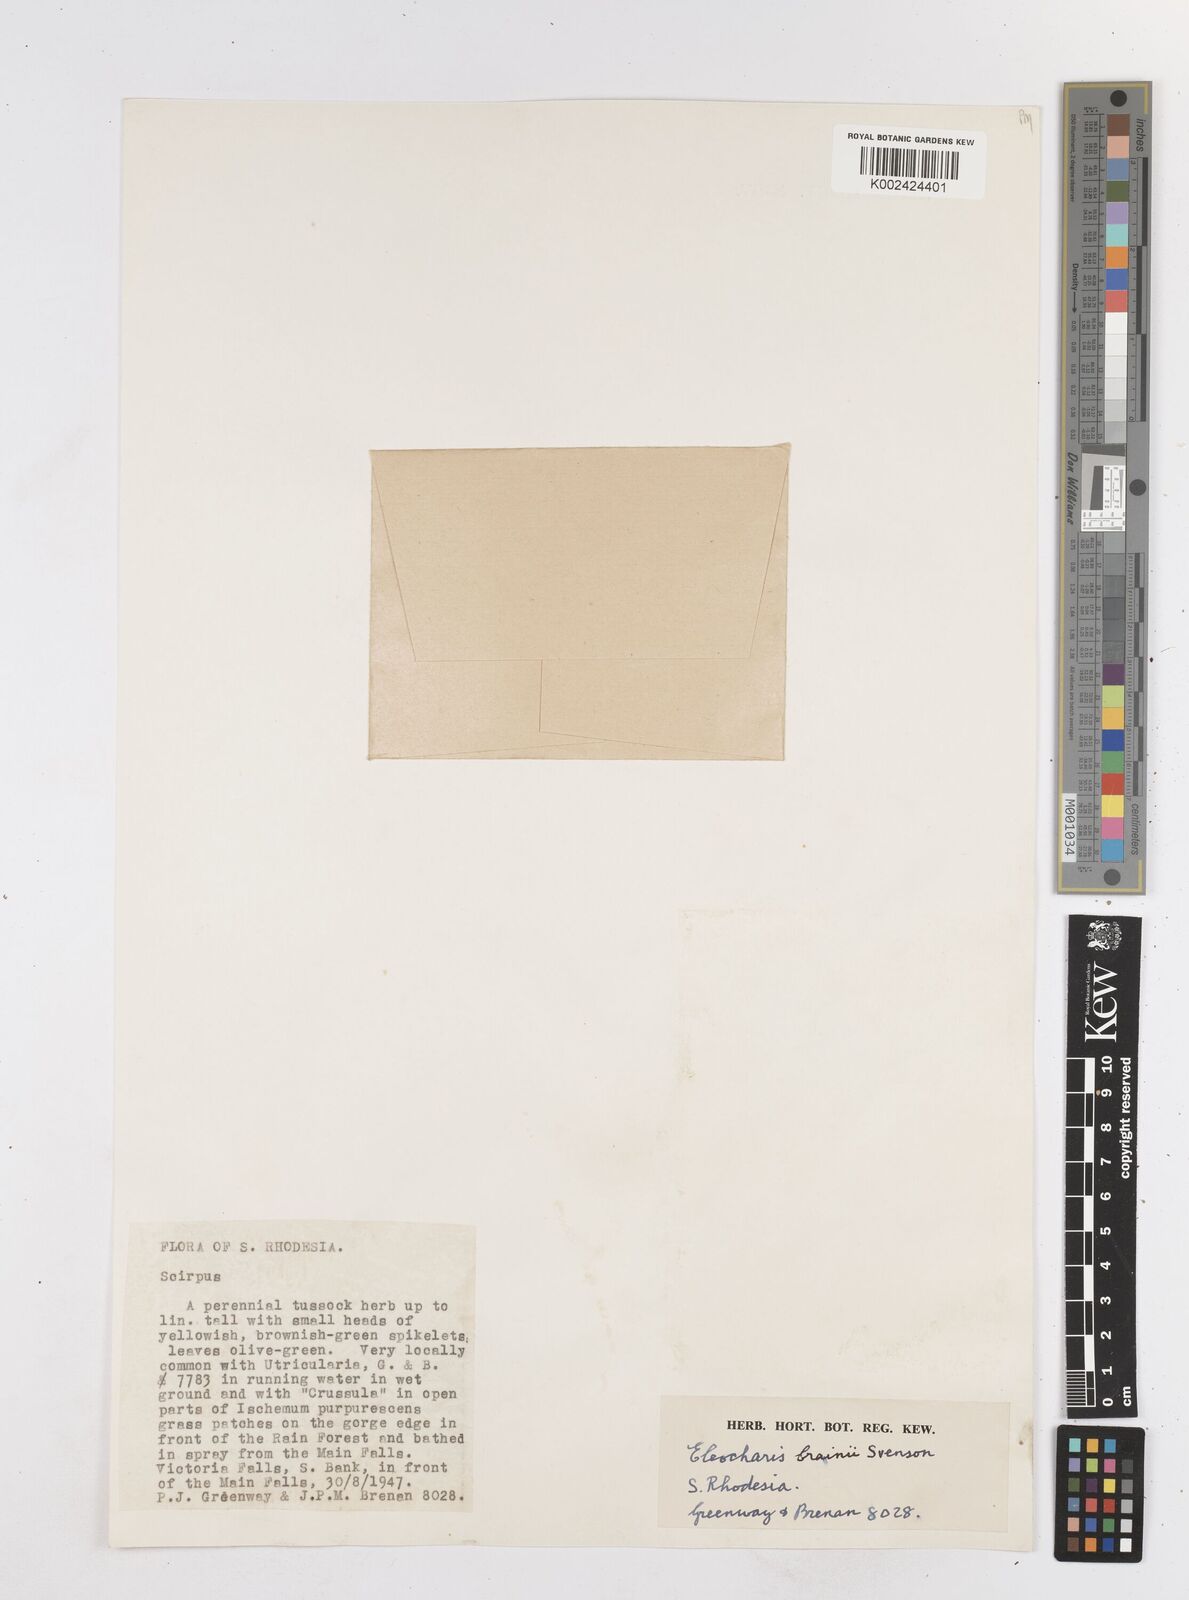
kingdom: Plantae
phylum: Tracheophyta
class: Liliopsida
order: Poales
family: Cyperaceae
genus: Eleocharis
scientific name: Eleocharis brainii
